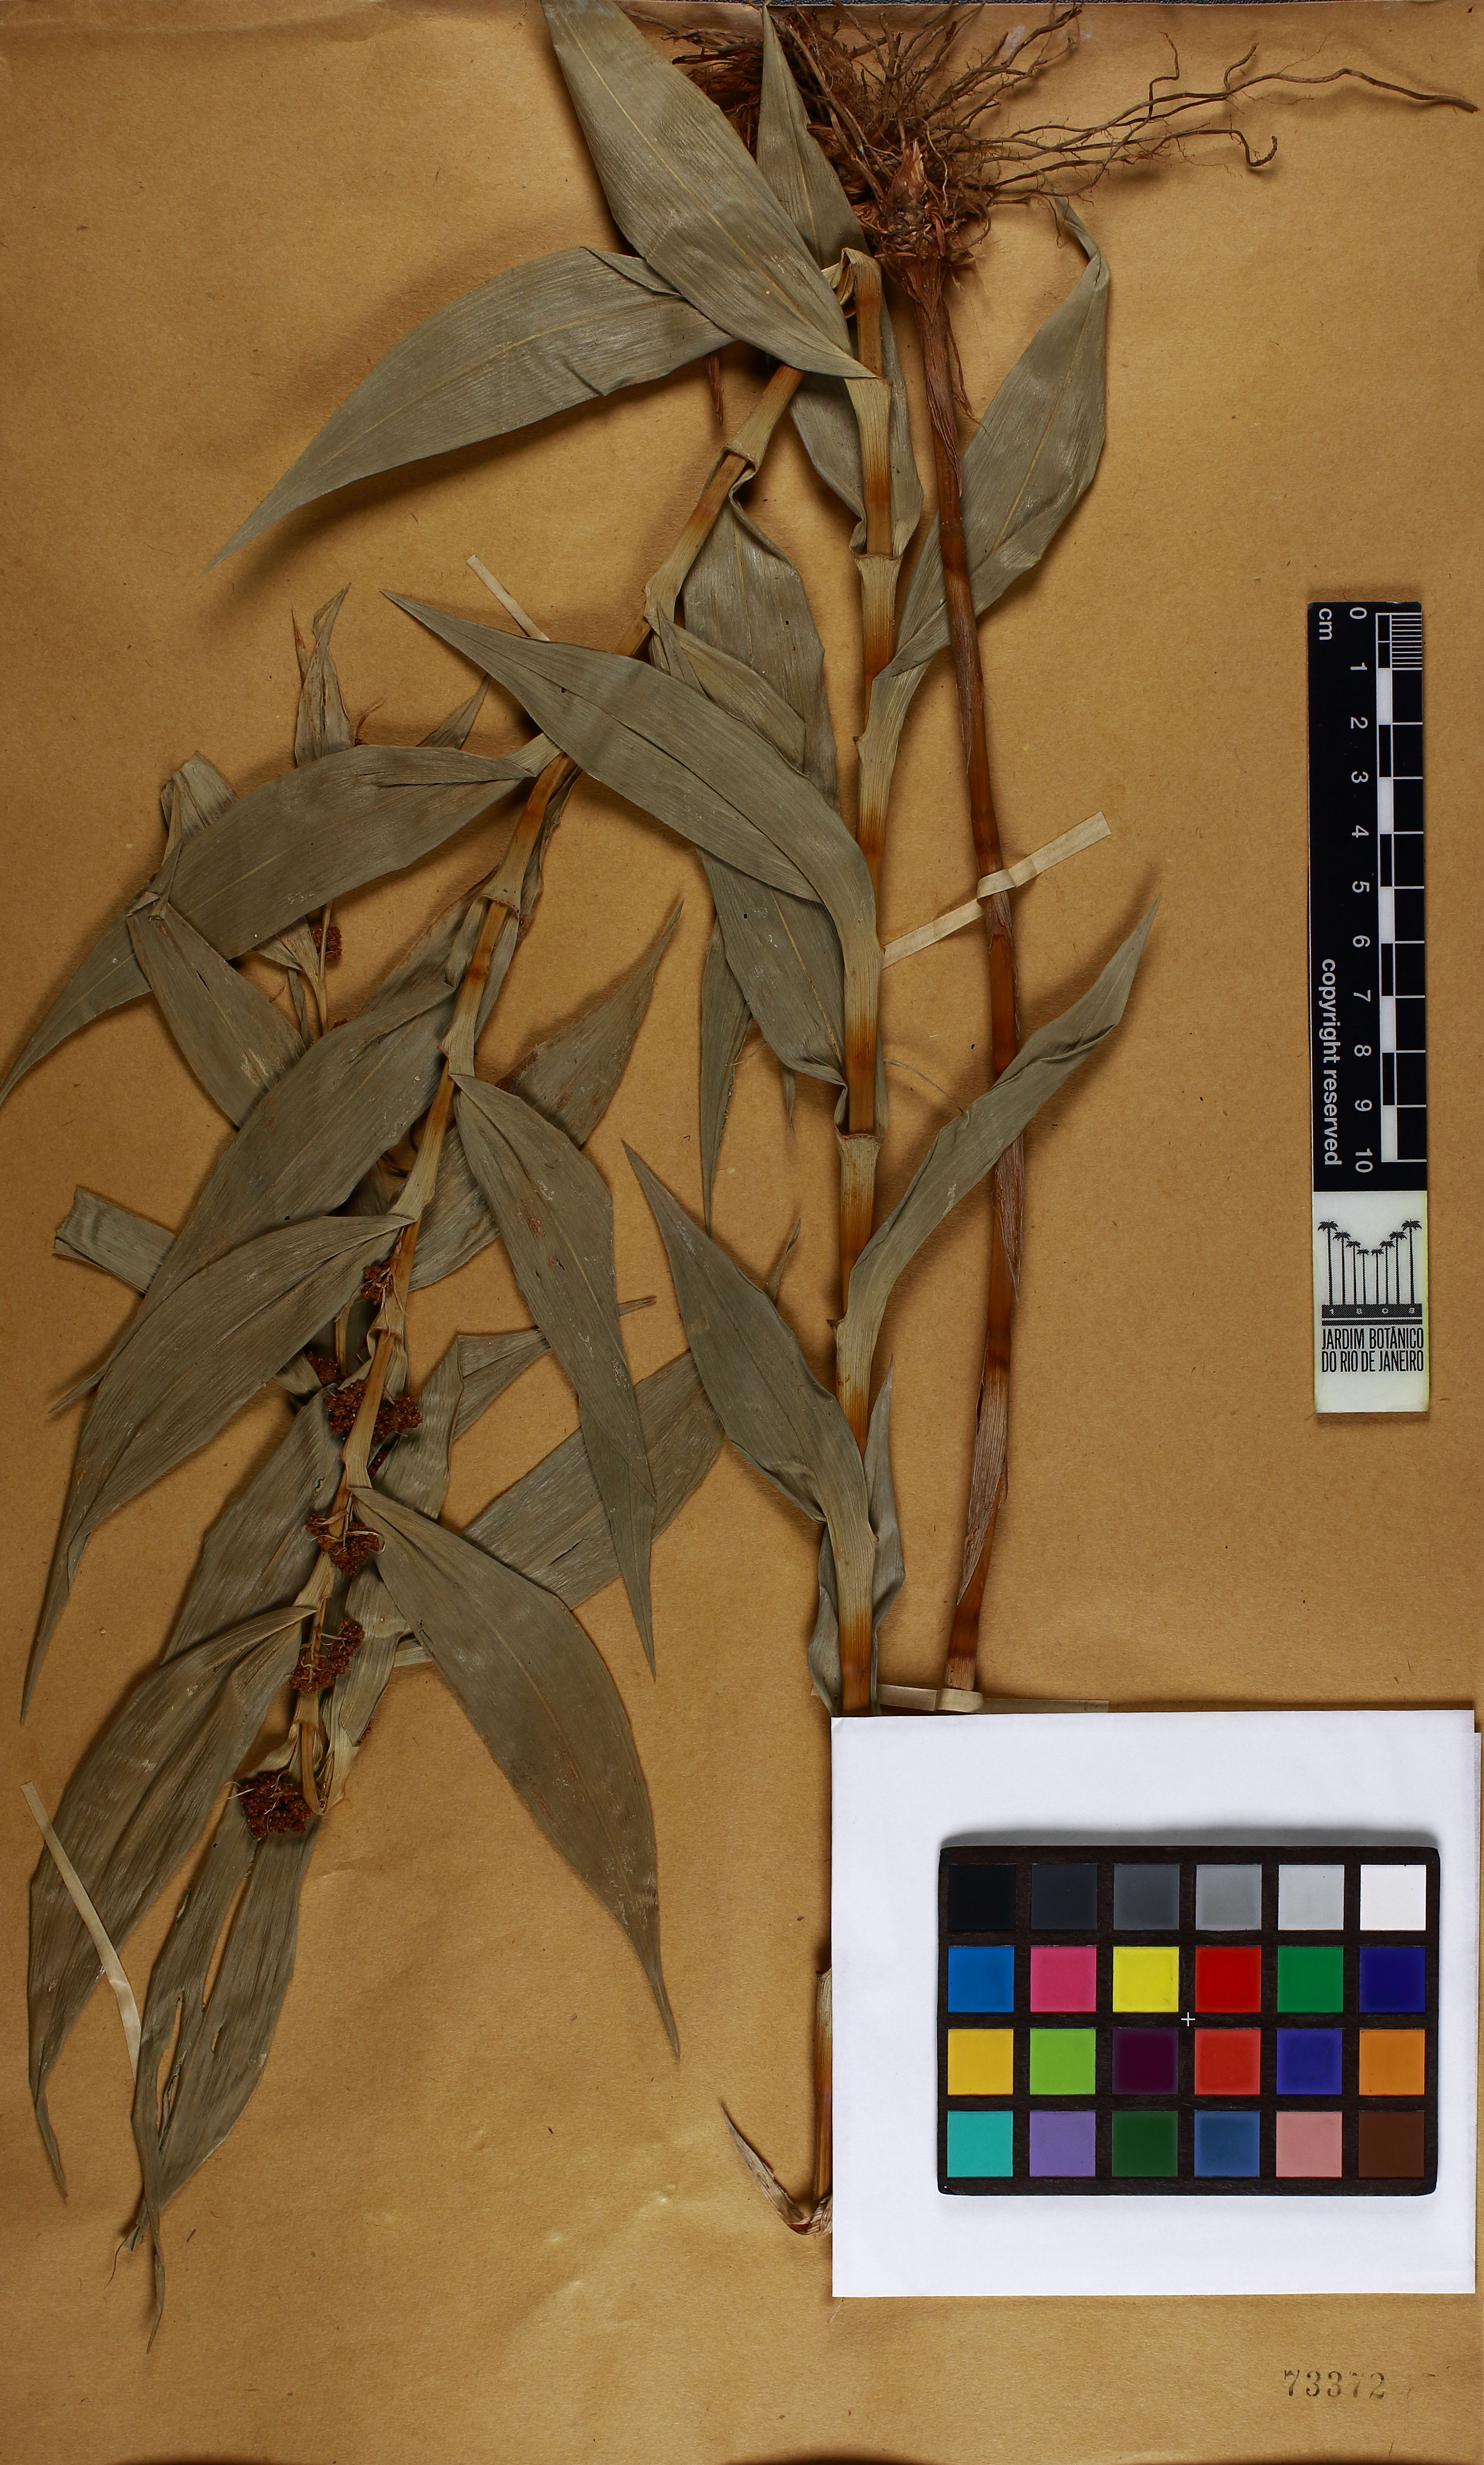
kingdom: Plantae
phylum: Tracheophyta
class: Liliopsida
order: Poales
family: Cyperaceae
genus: Rhynchospora
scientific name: Rhynchospora Pleurostachys ulei
